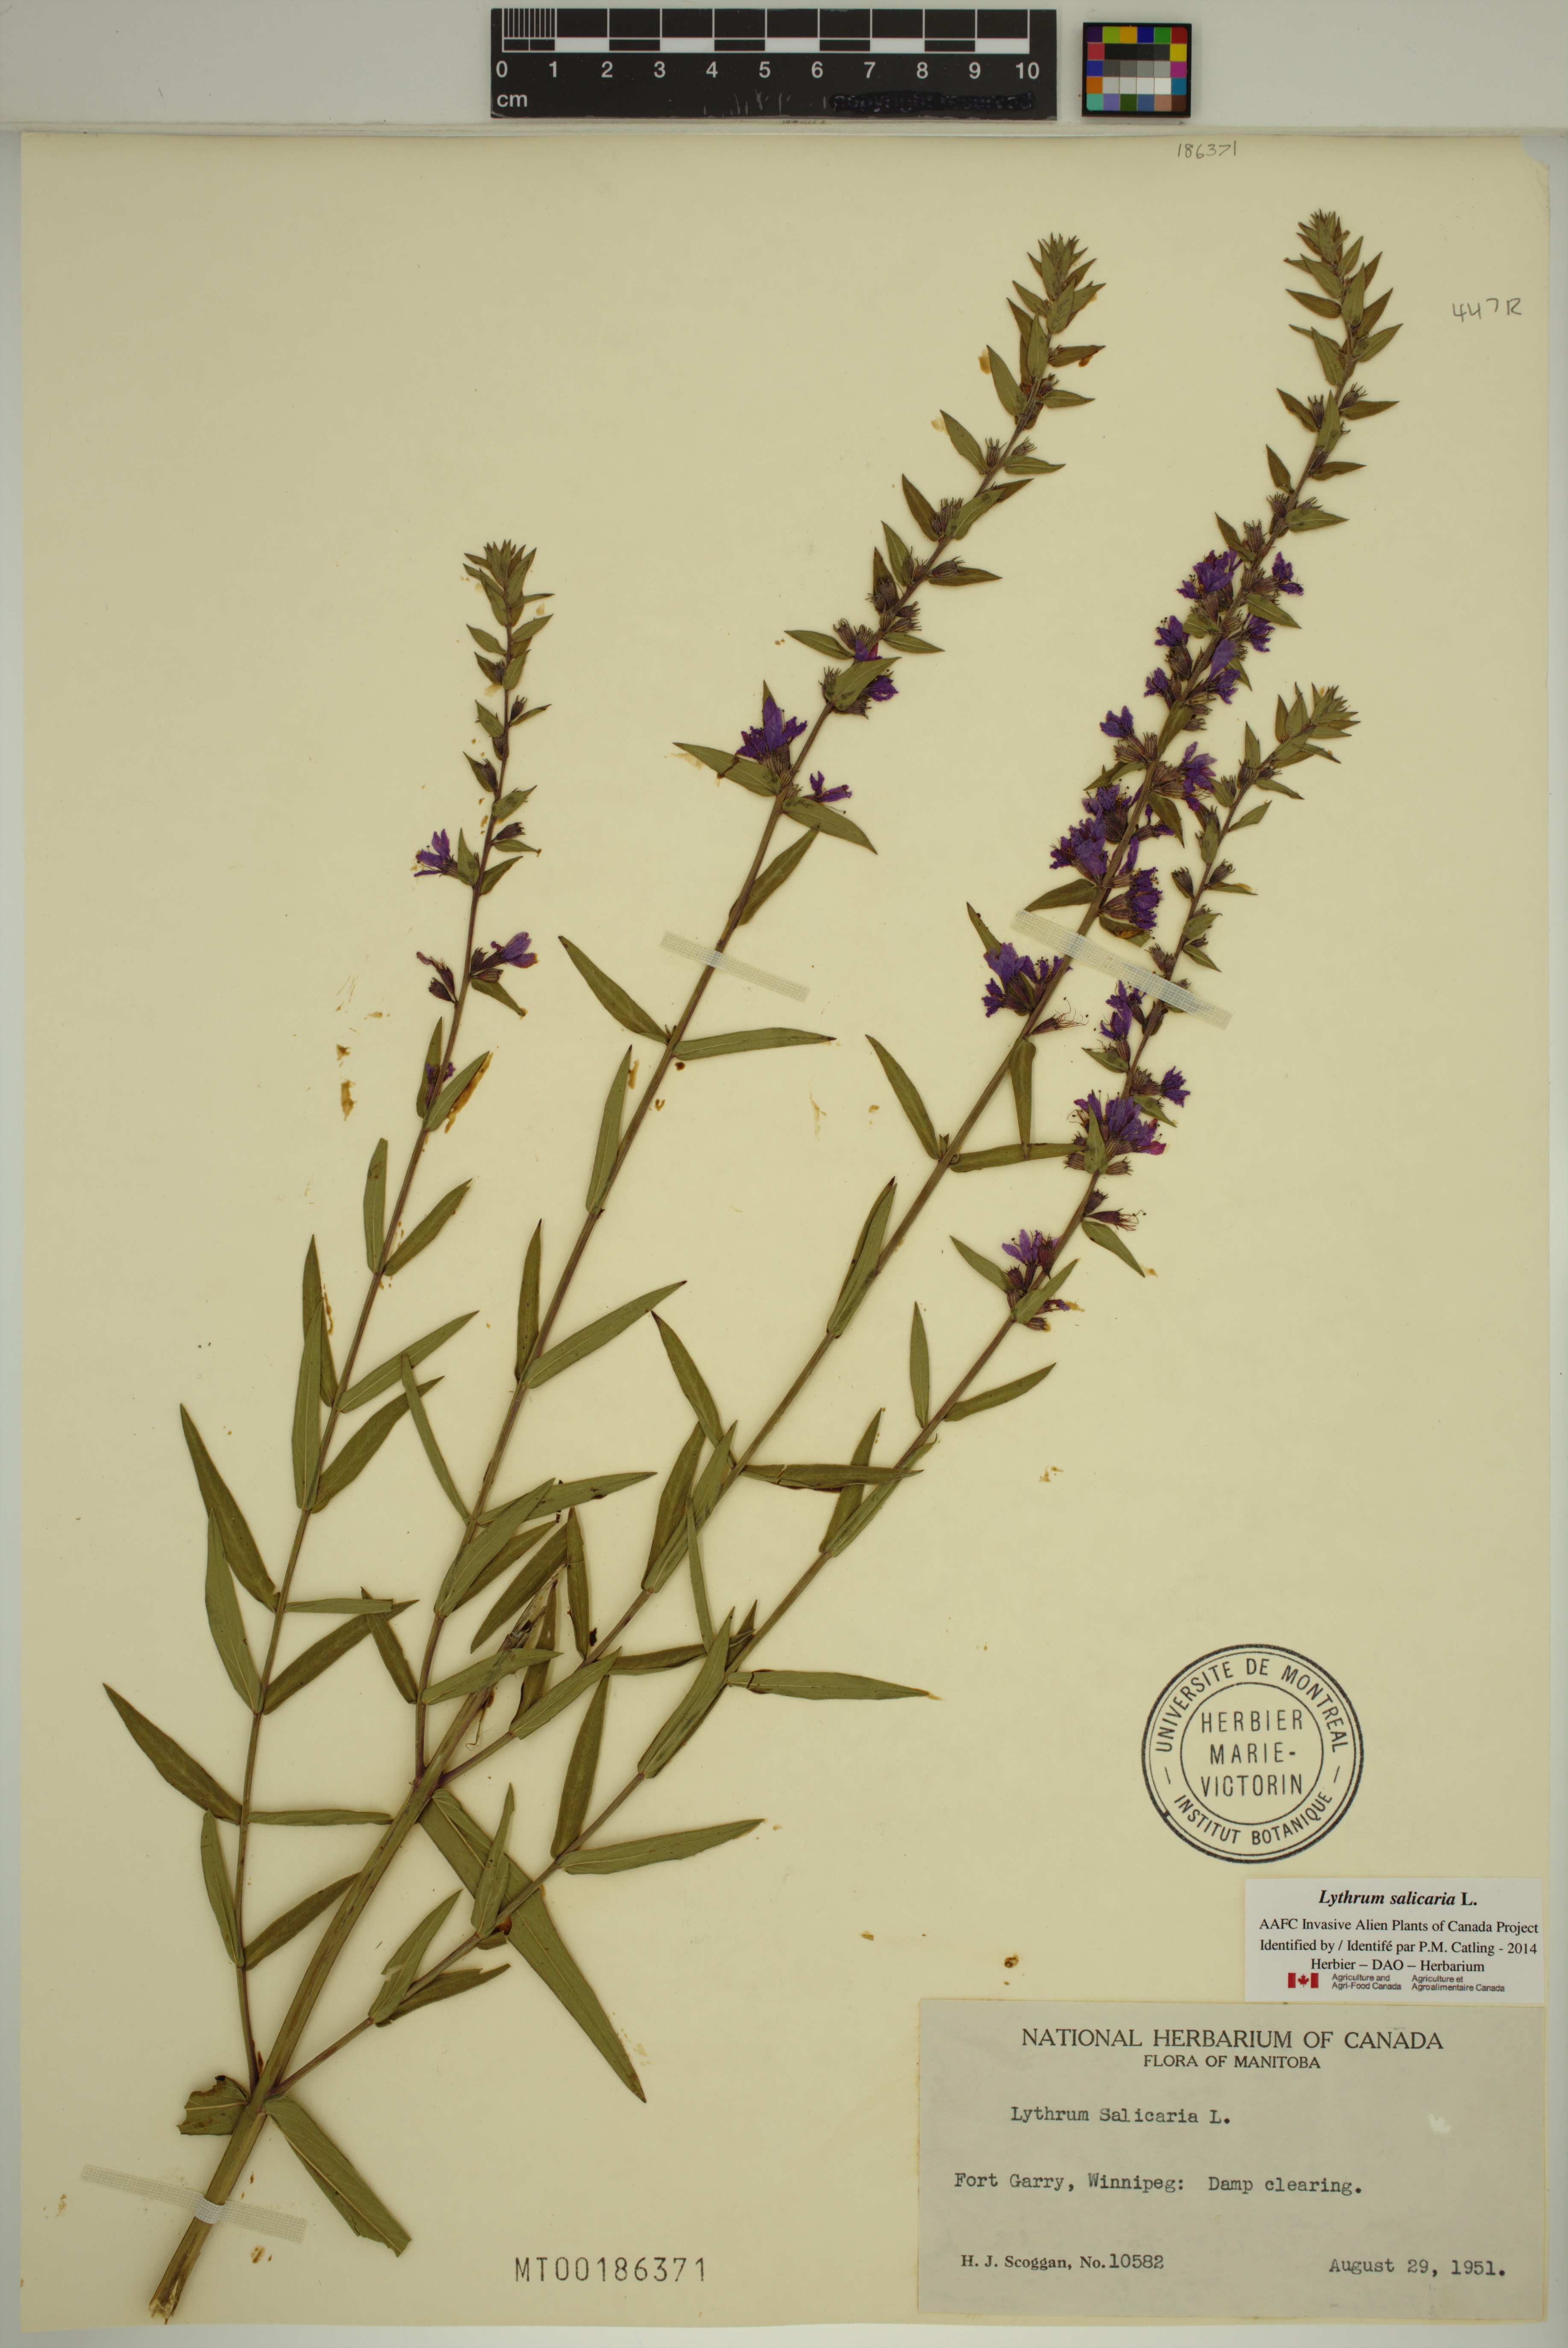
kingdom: Plantae
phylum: Tracheophyta
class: Magnoliopsida
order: Myrtales
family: Lythraceae
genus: Lythrum
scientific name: Lythrum salicaria
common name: Purple loosestrife
